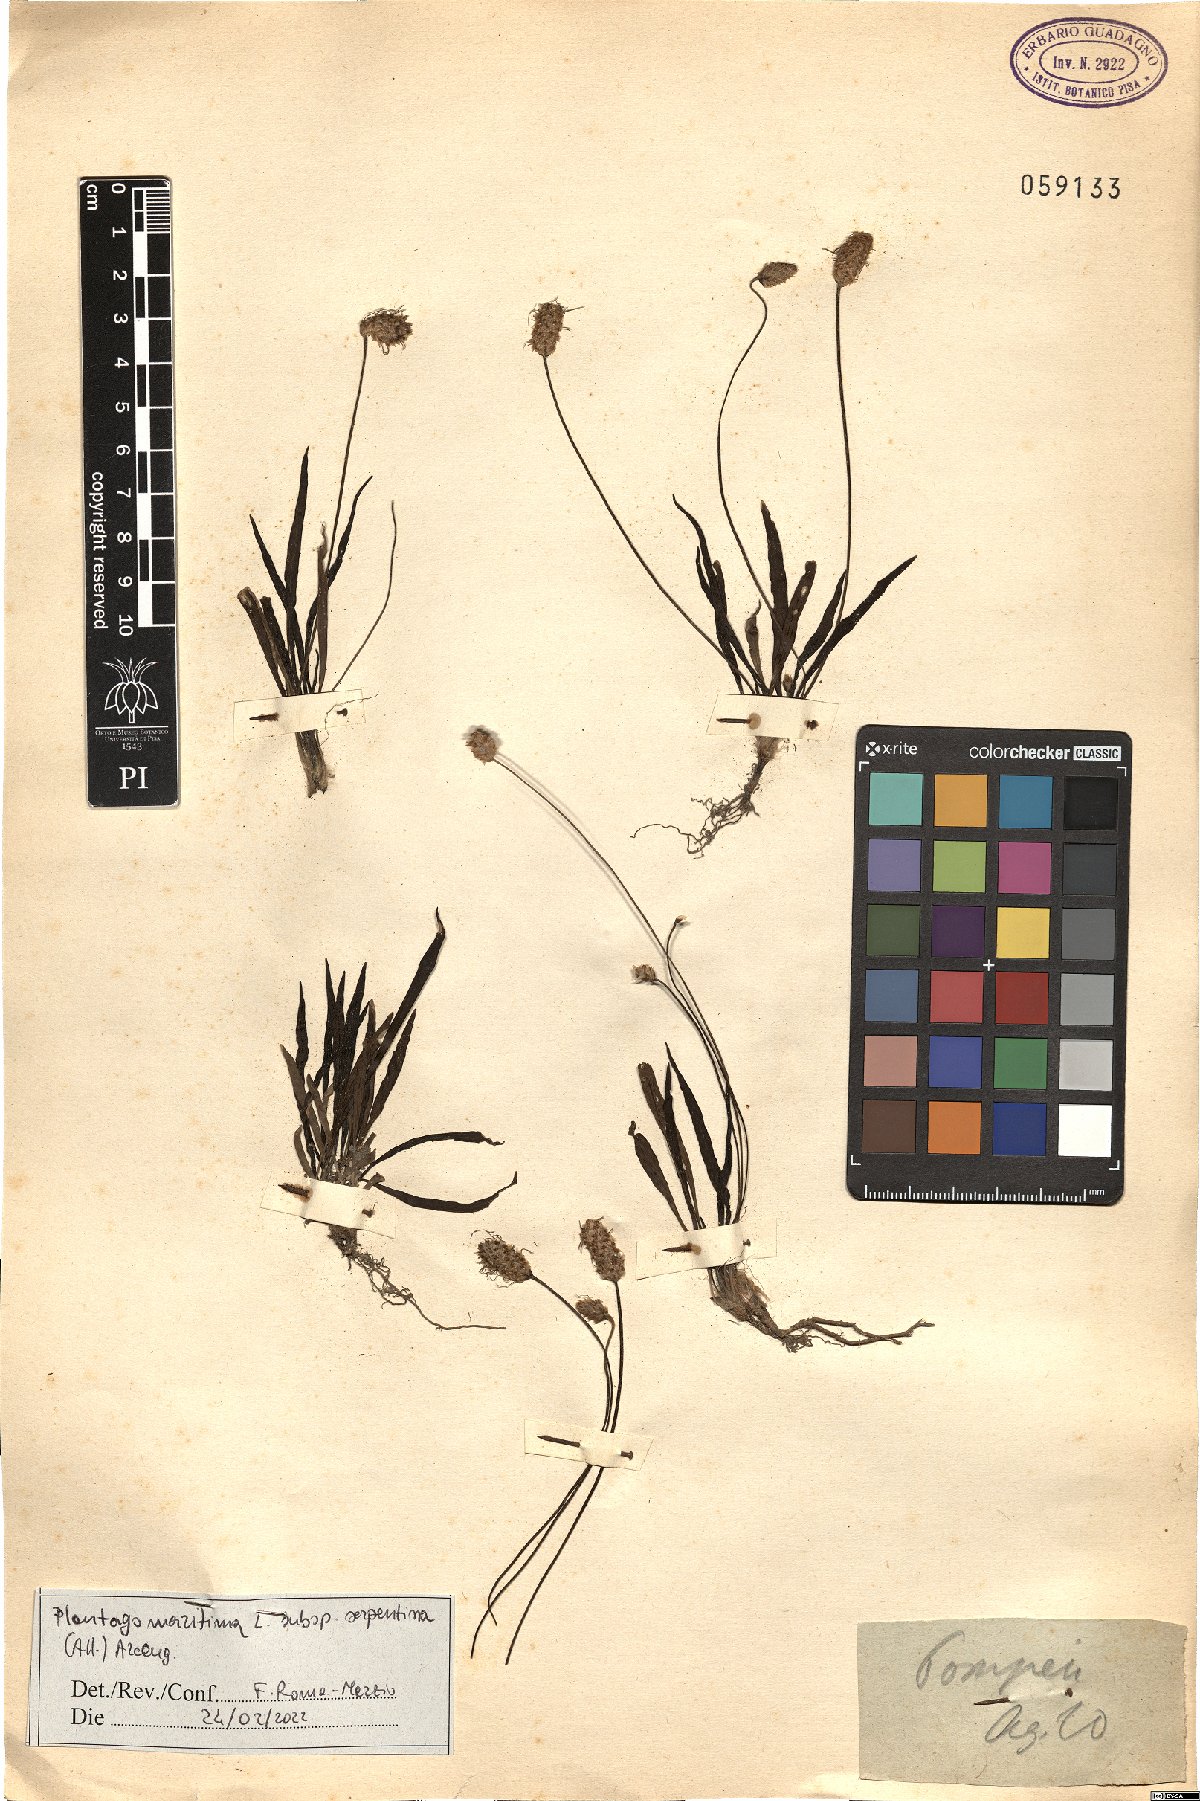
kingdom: Plantae
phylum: Tracheophyta
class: Magnoliopsida
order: Lamiales
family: Plantaginaceae
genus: Plantago
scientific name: Plantago strictissima
